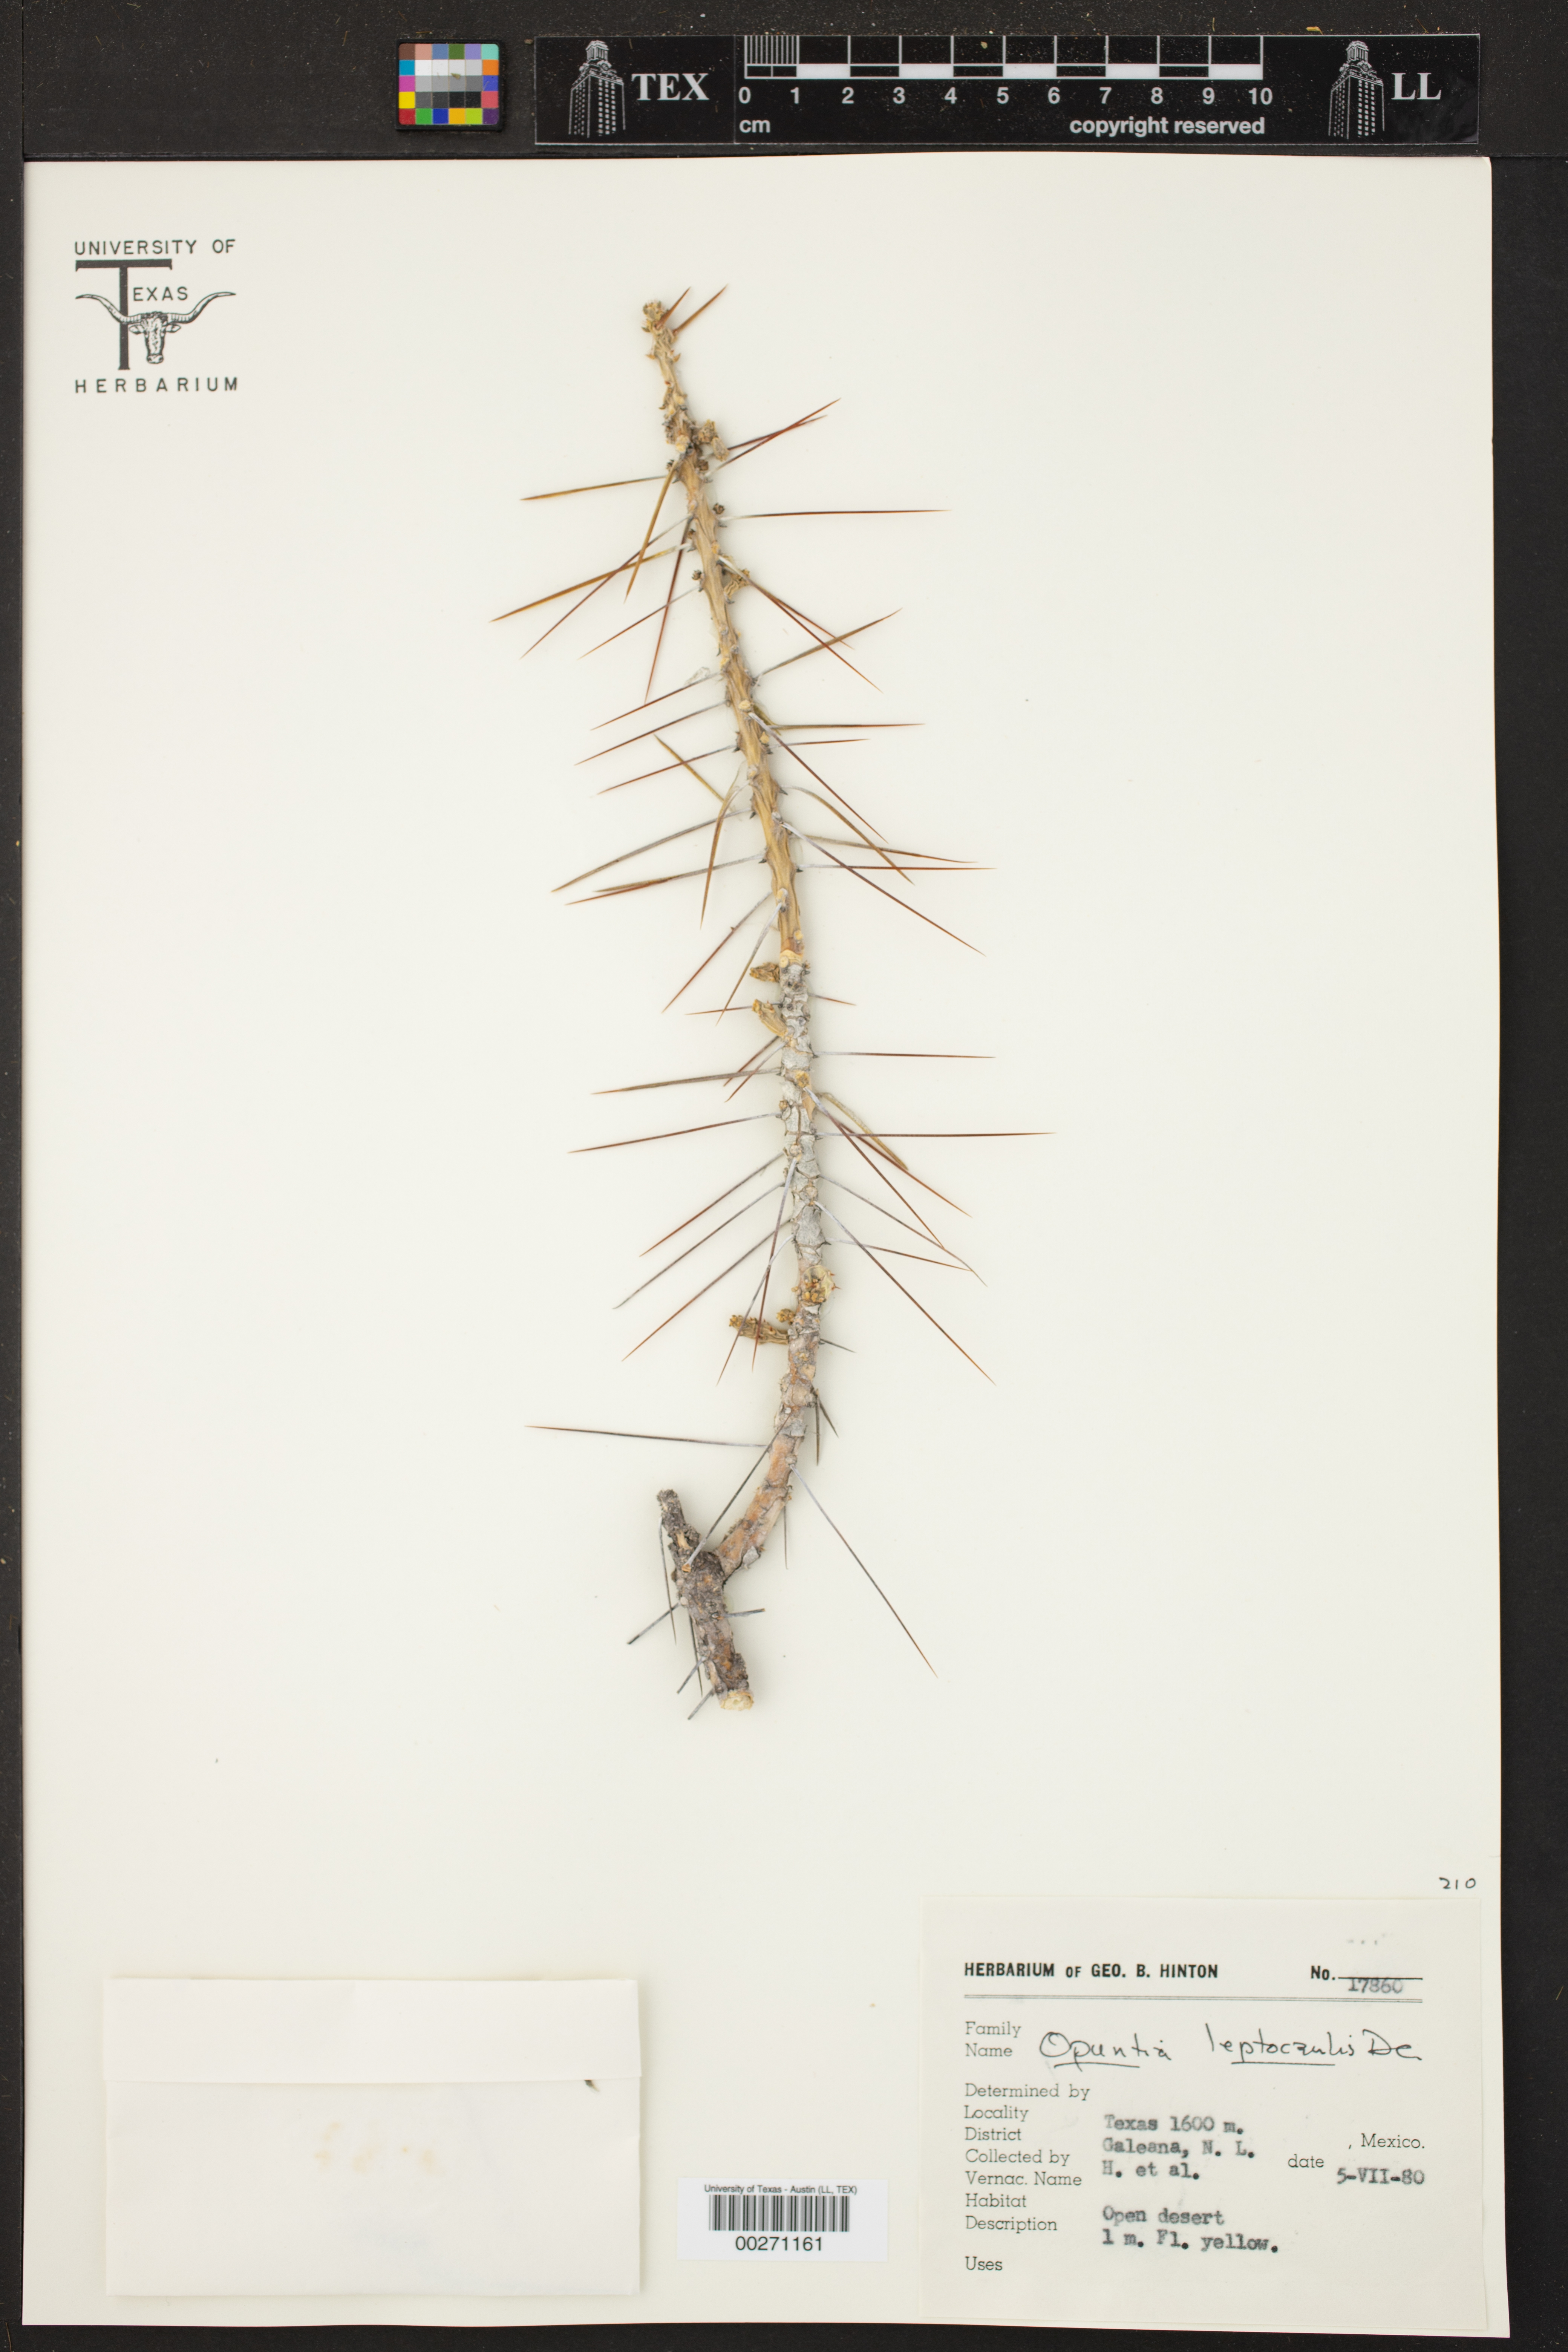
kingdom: Plantae
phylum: Tracheophyta
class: Magnoliopsida
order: Caryophyllales
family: Cactaceae
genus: Cylindropuntia
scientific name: Cylindropuntia leptocaulis
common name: Christmas cactus
